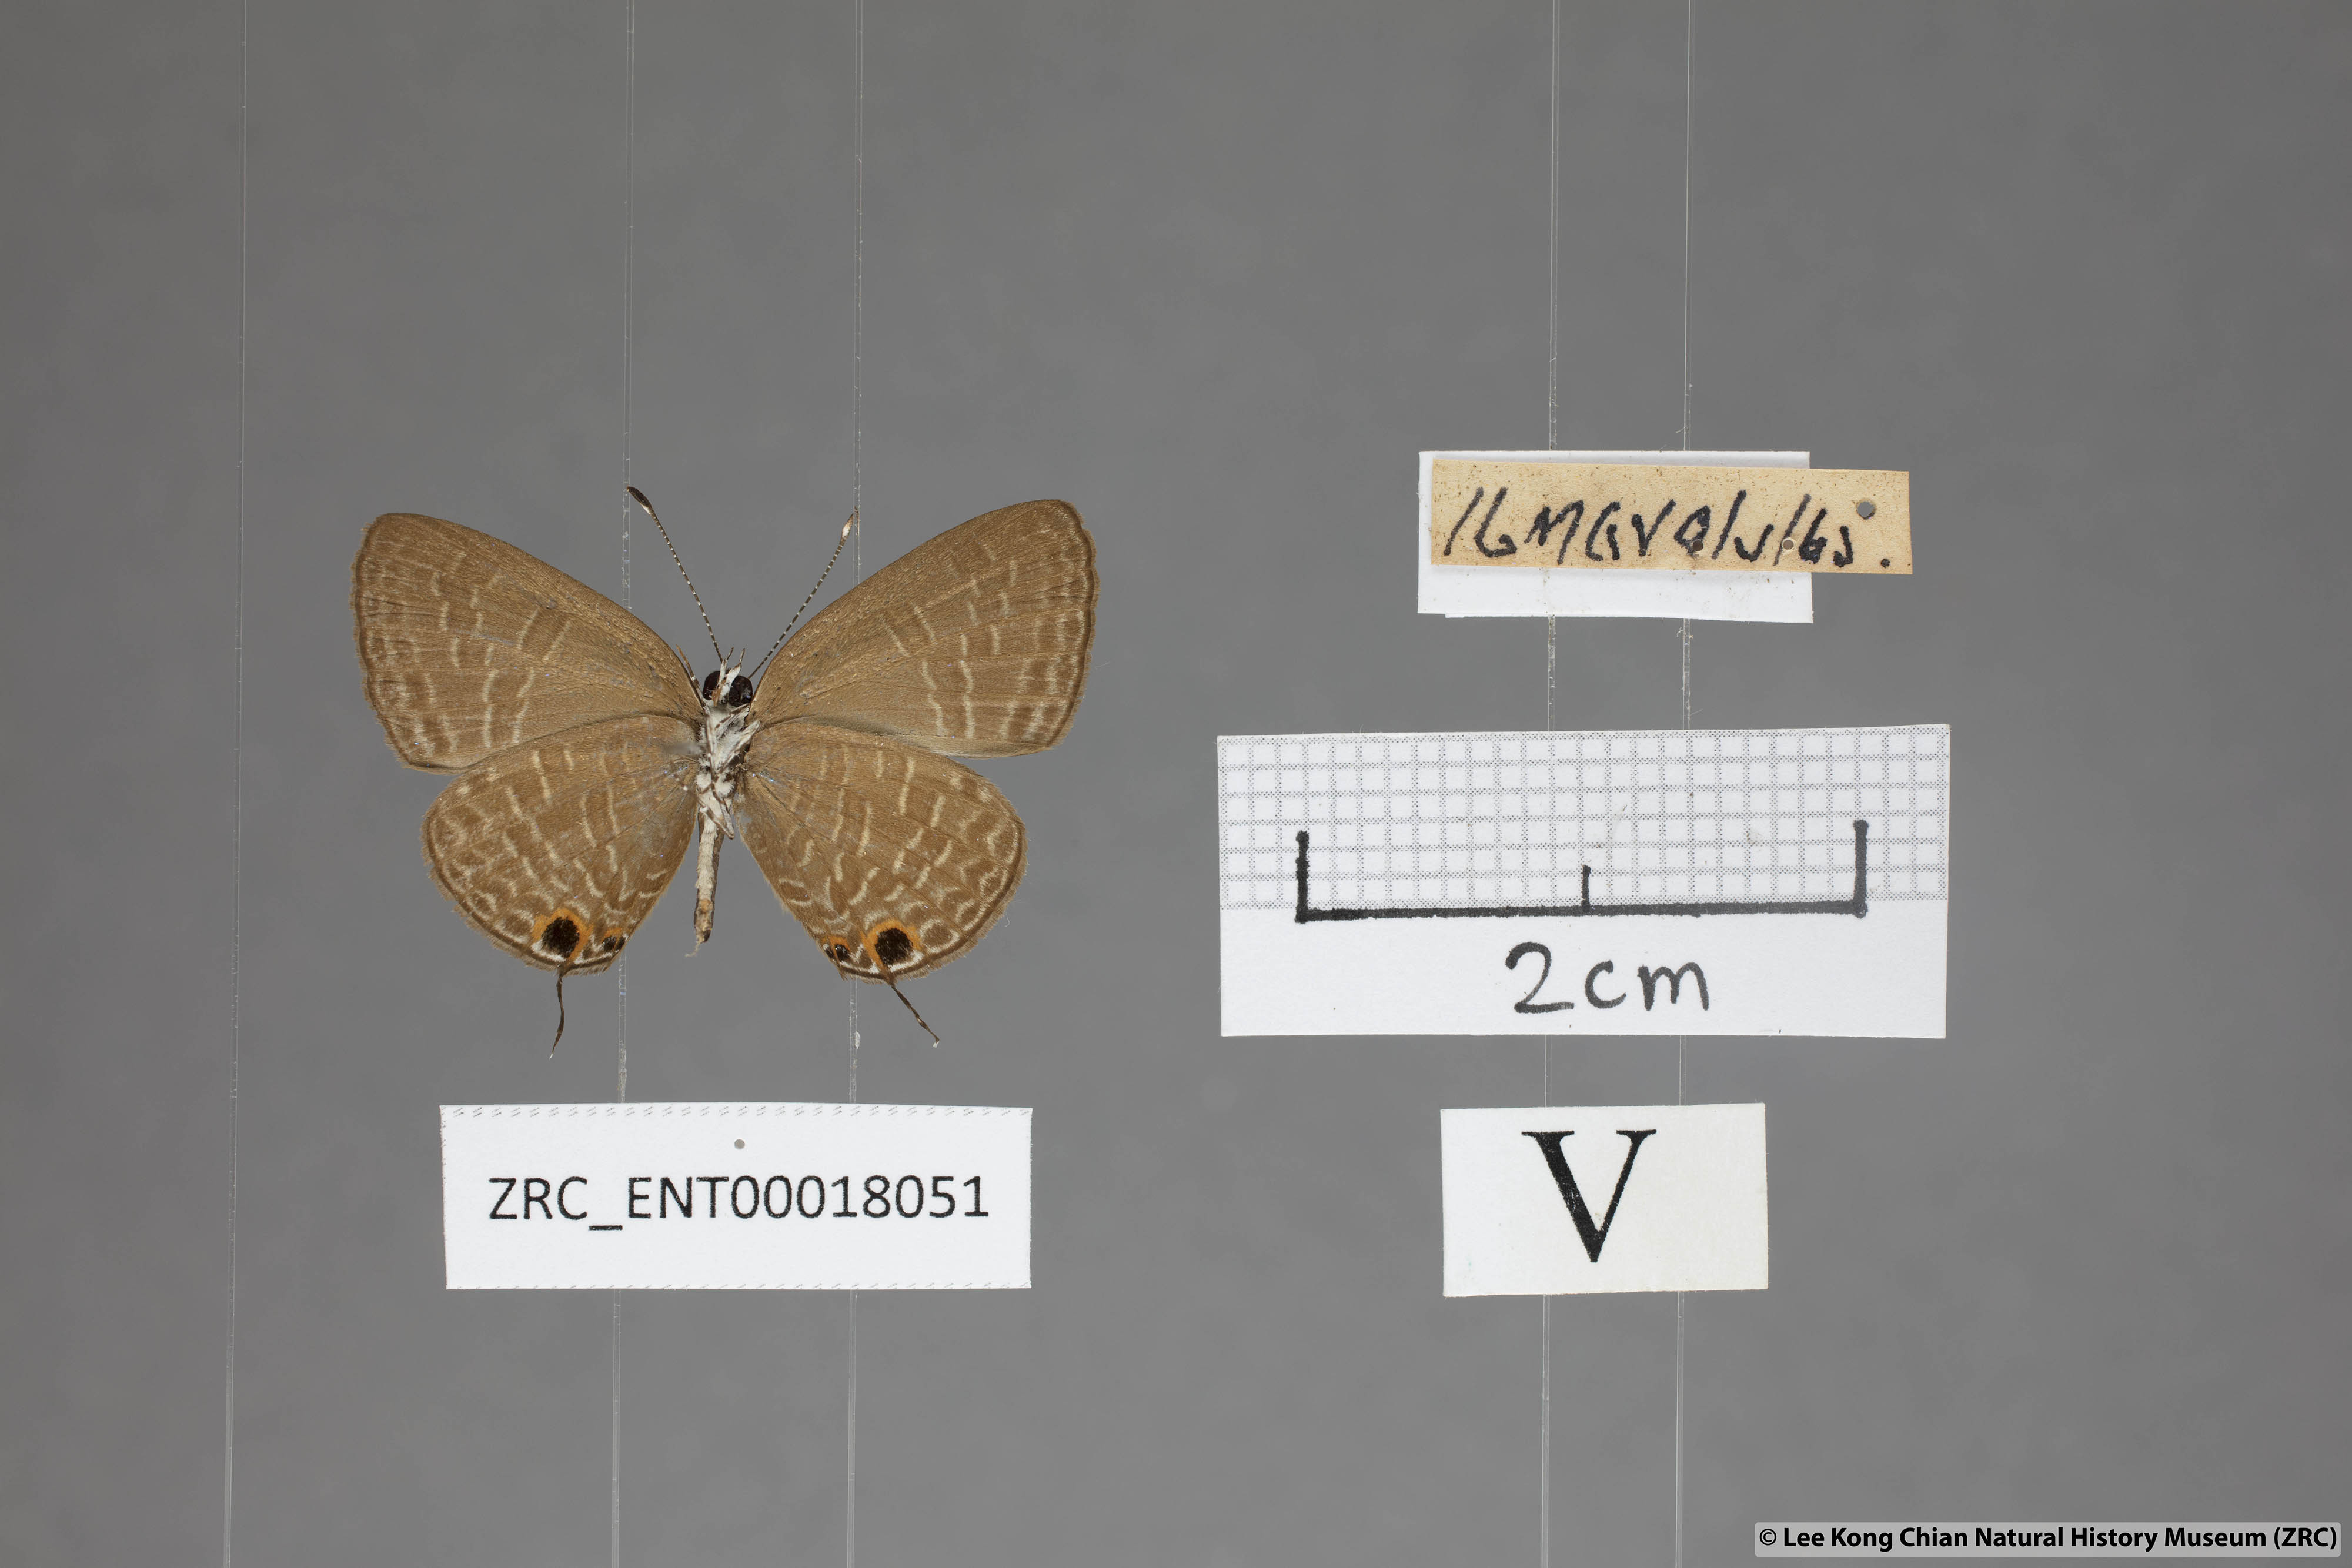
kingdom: Animalia
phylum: Arthropoda
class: Insecta
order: Lepidoptera
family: Lycaenidae
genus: Jamides
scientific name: Jamides bochus
